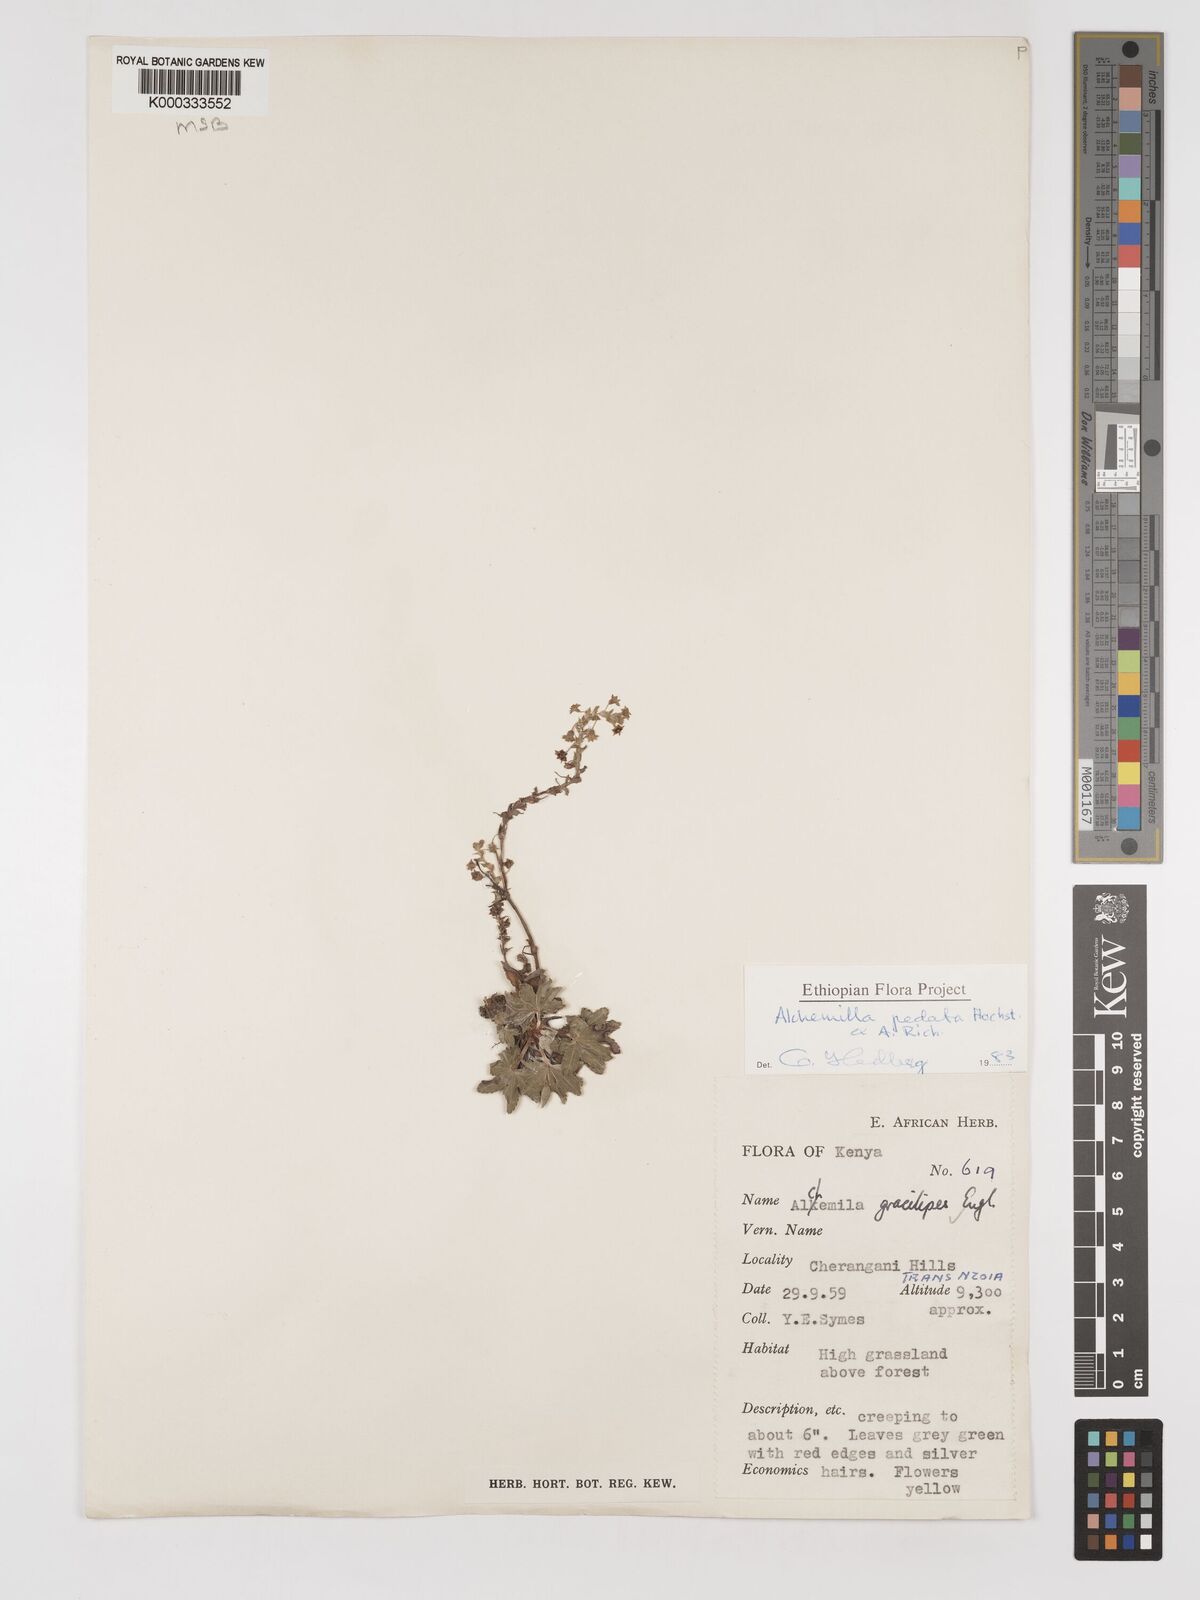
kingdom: Plantae
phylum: Tracheophyta
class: Magnoliopsida
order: Rosales
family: Rosaceae
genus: Alchemilla
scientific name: Alchemilla pedata
